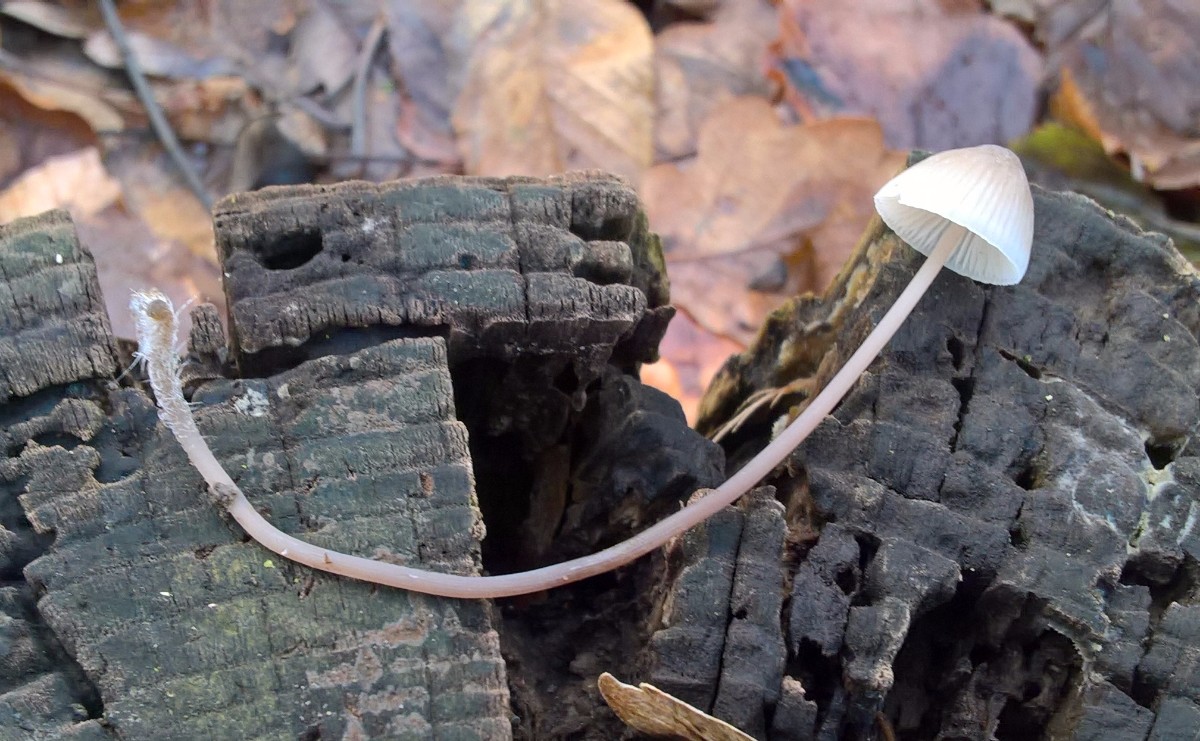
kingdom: Fungi
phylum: Basidiomycota
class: Agaricomycetes
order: Agaricales
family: Mycenaceae
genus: Mycena
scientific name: Mycena
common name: huesvamp
